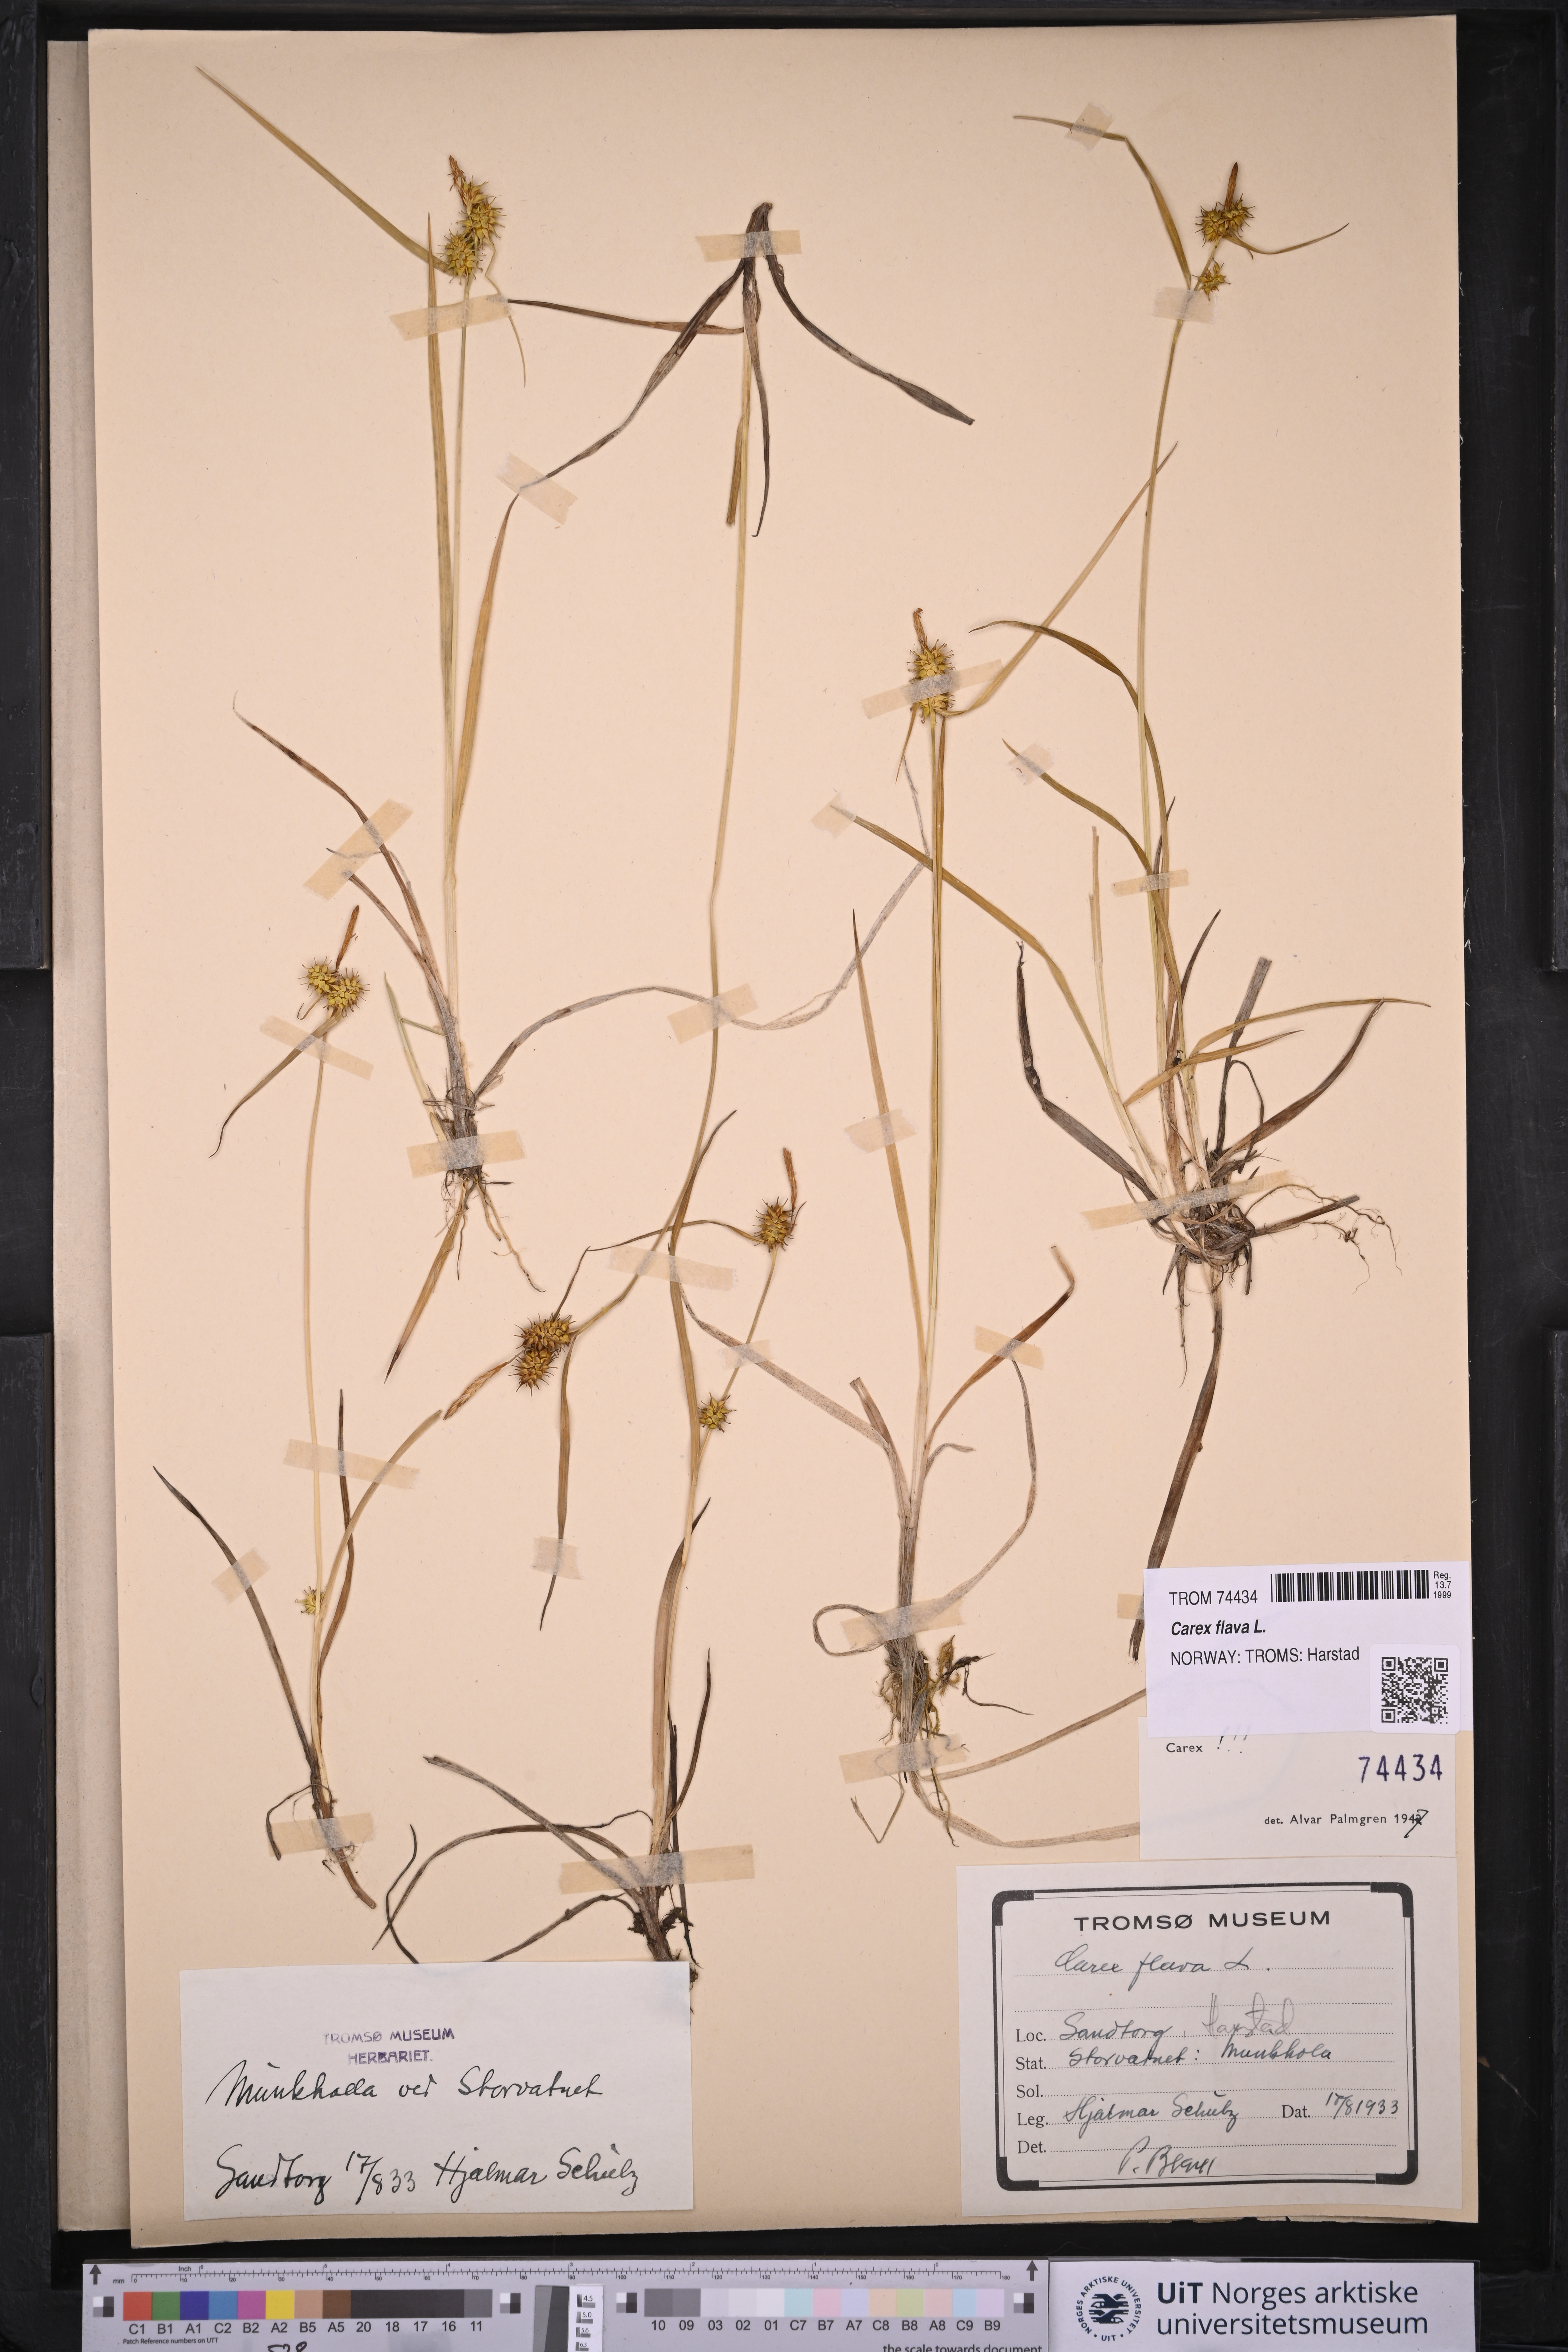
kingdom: Plantae
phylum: Tracheophyta
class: Liliopsida
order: Poales
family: Cyperaceae
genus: Carex
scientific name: Carex flava
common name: Large yellow-sedge
